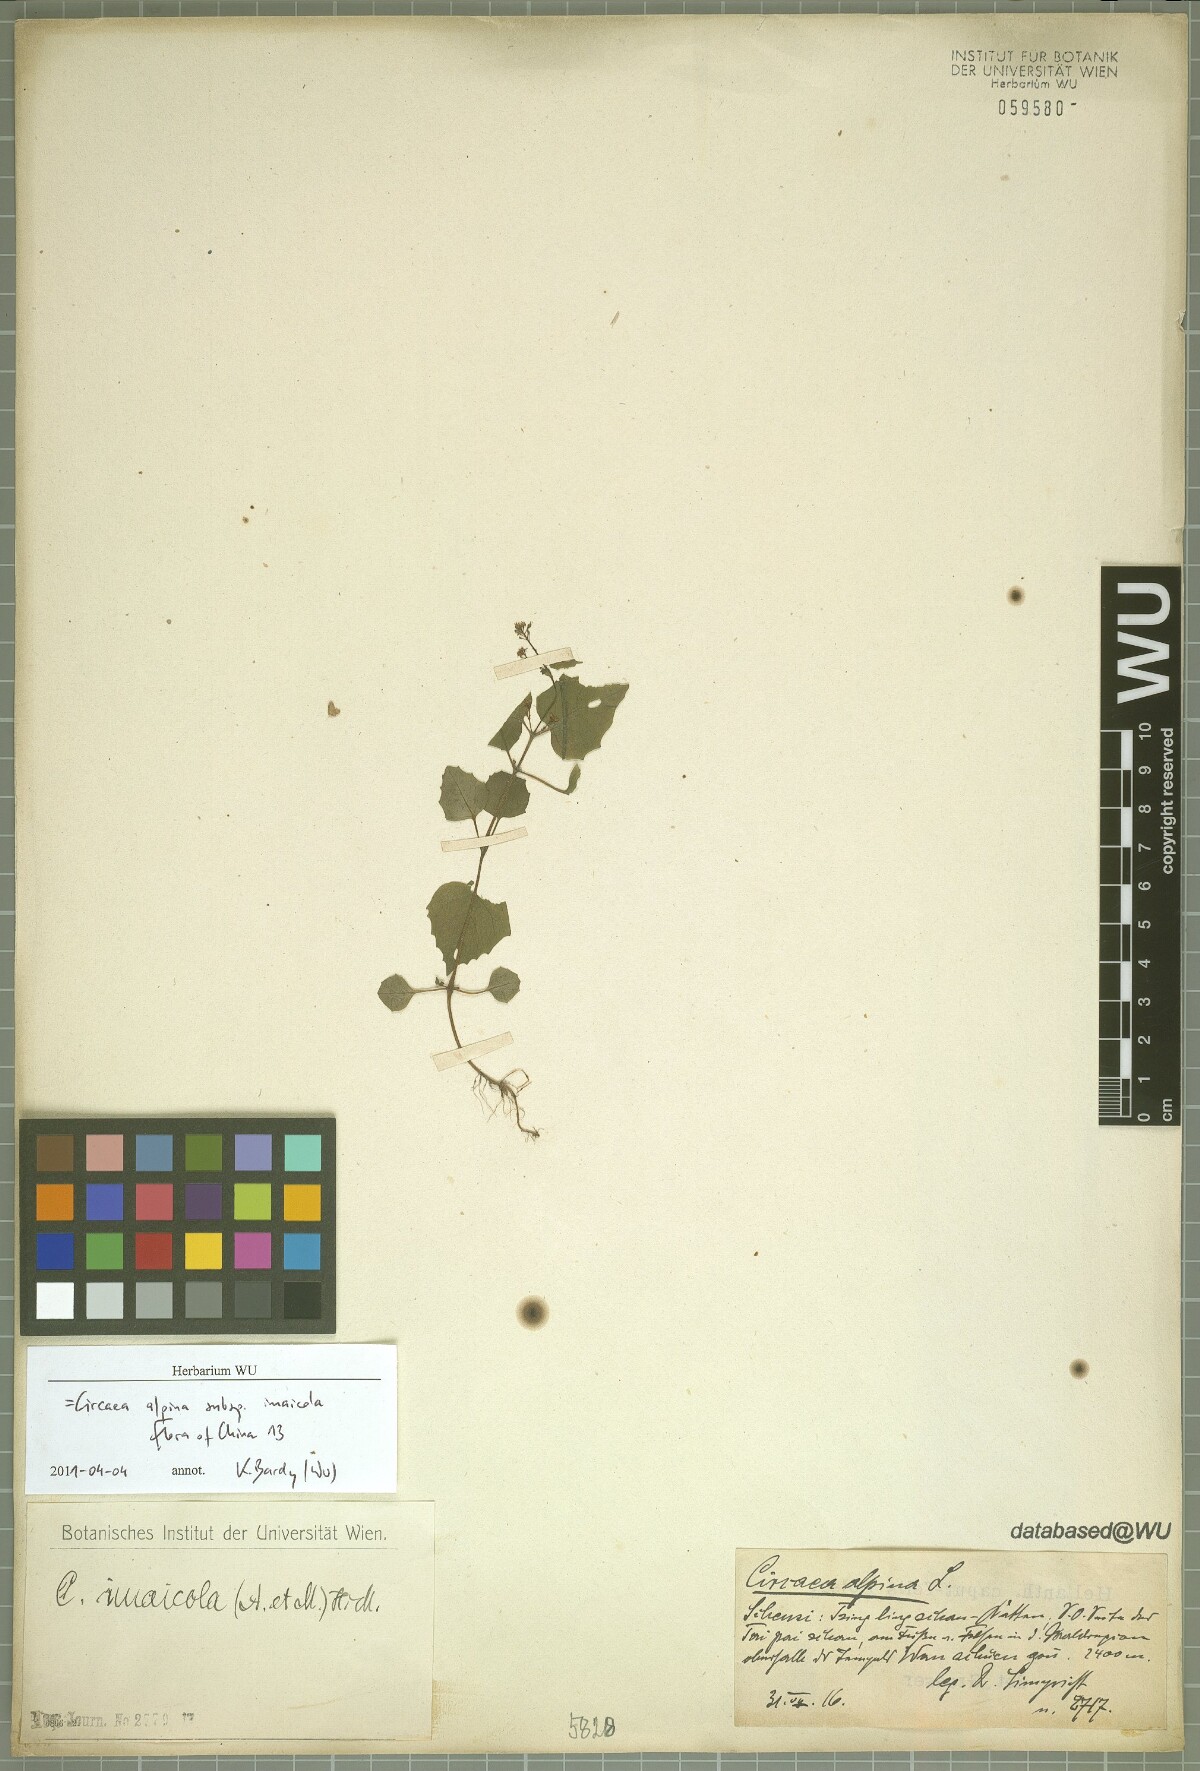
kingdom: Plantae
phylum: Tracheophyta
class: Magnoliopsida
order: Myrtales
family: Onagraceae
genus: Circaea
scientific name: Circaea alpina
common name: Alpine enchanter's-nightshade
